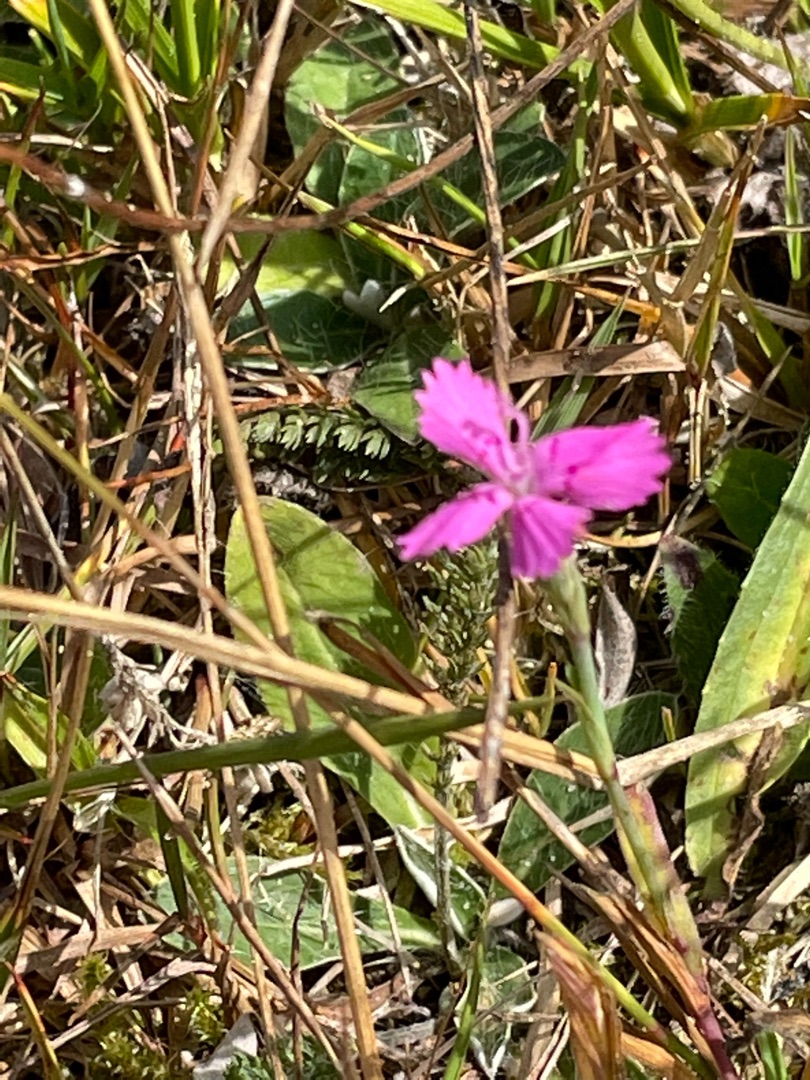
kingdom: Plantae
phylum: Tracheophyta
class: Magnoliopsida
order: Caryophyllales
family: Caryophyllaceae
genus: Dianthus
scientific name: Dianthus deltoides
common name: Bakke-nellike
